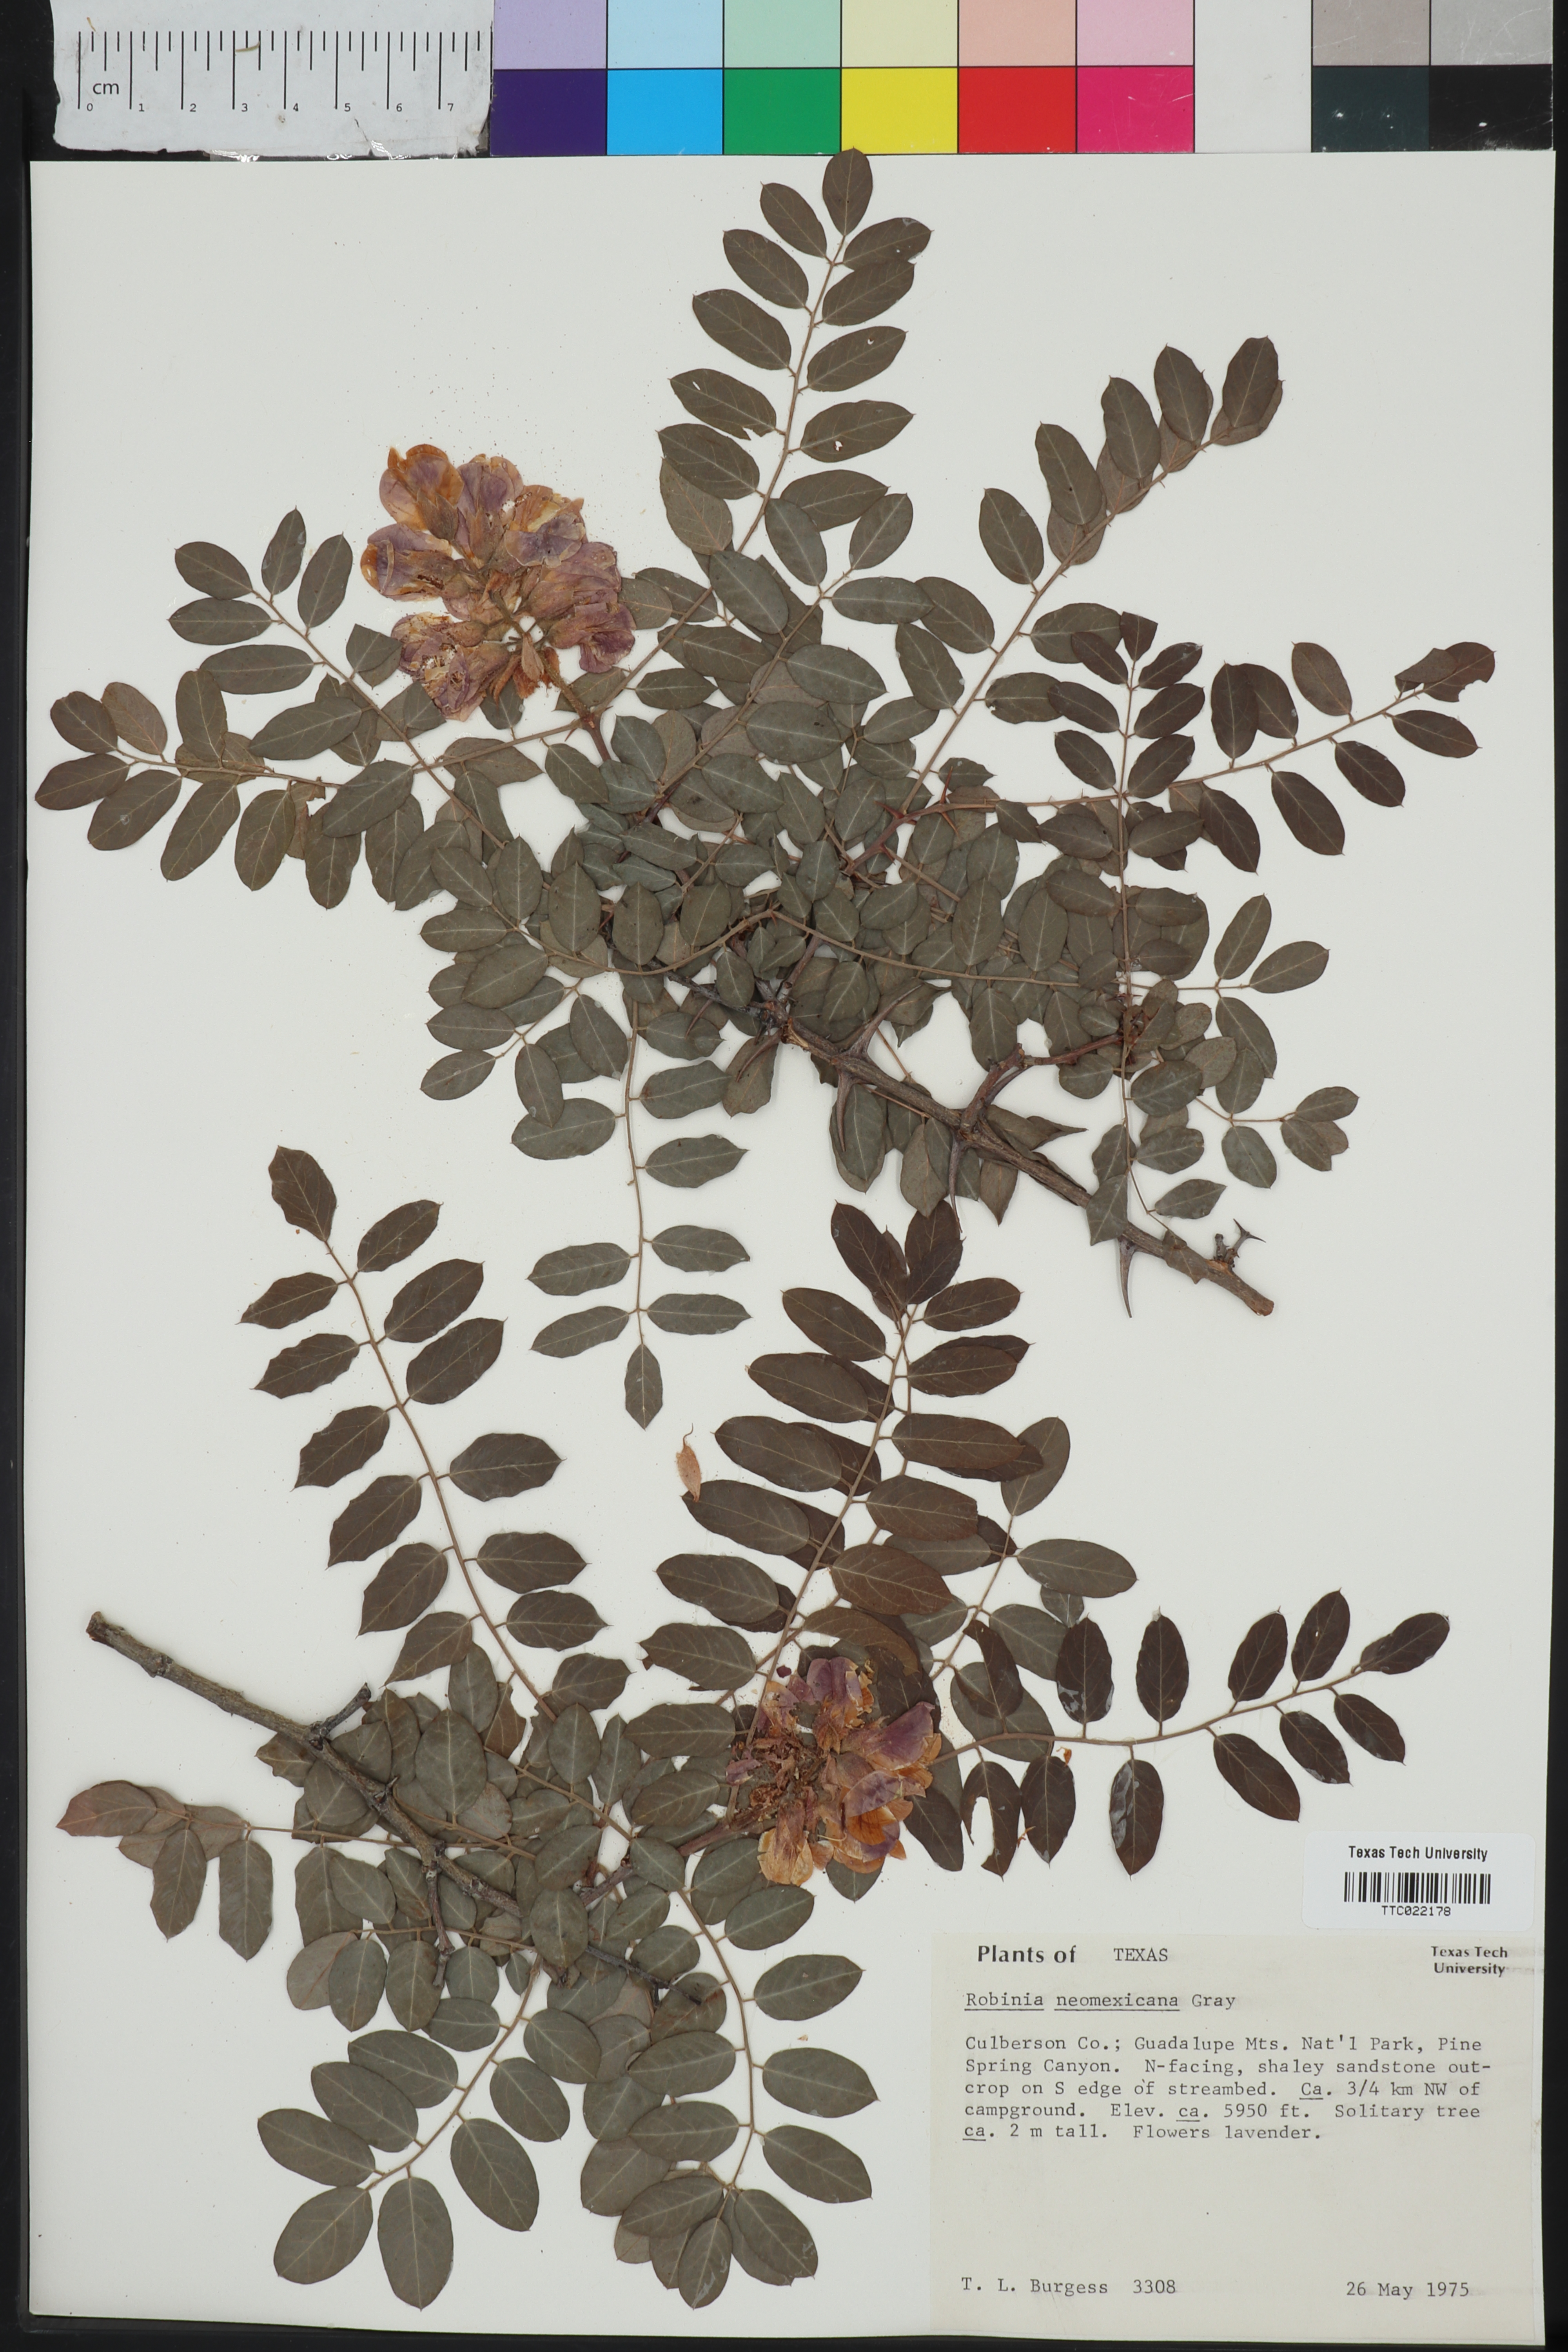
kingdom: Plantae
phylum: Tracheophyta
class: Magnoliopsida
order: Fabales
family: Fabaceae
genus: Robinia
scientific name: Robinia neomexicana
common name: New mexico locust
